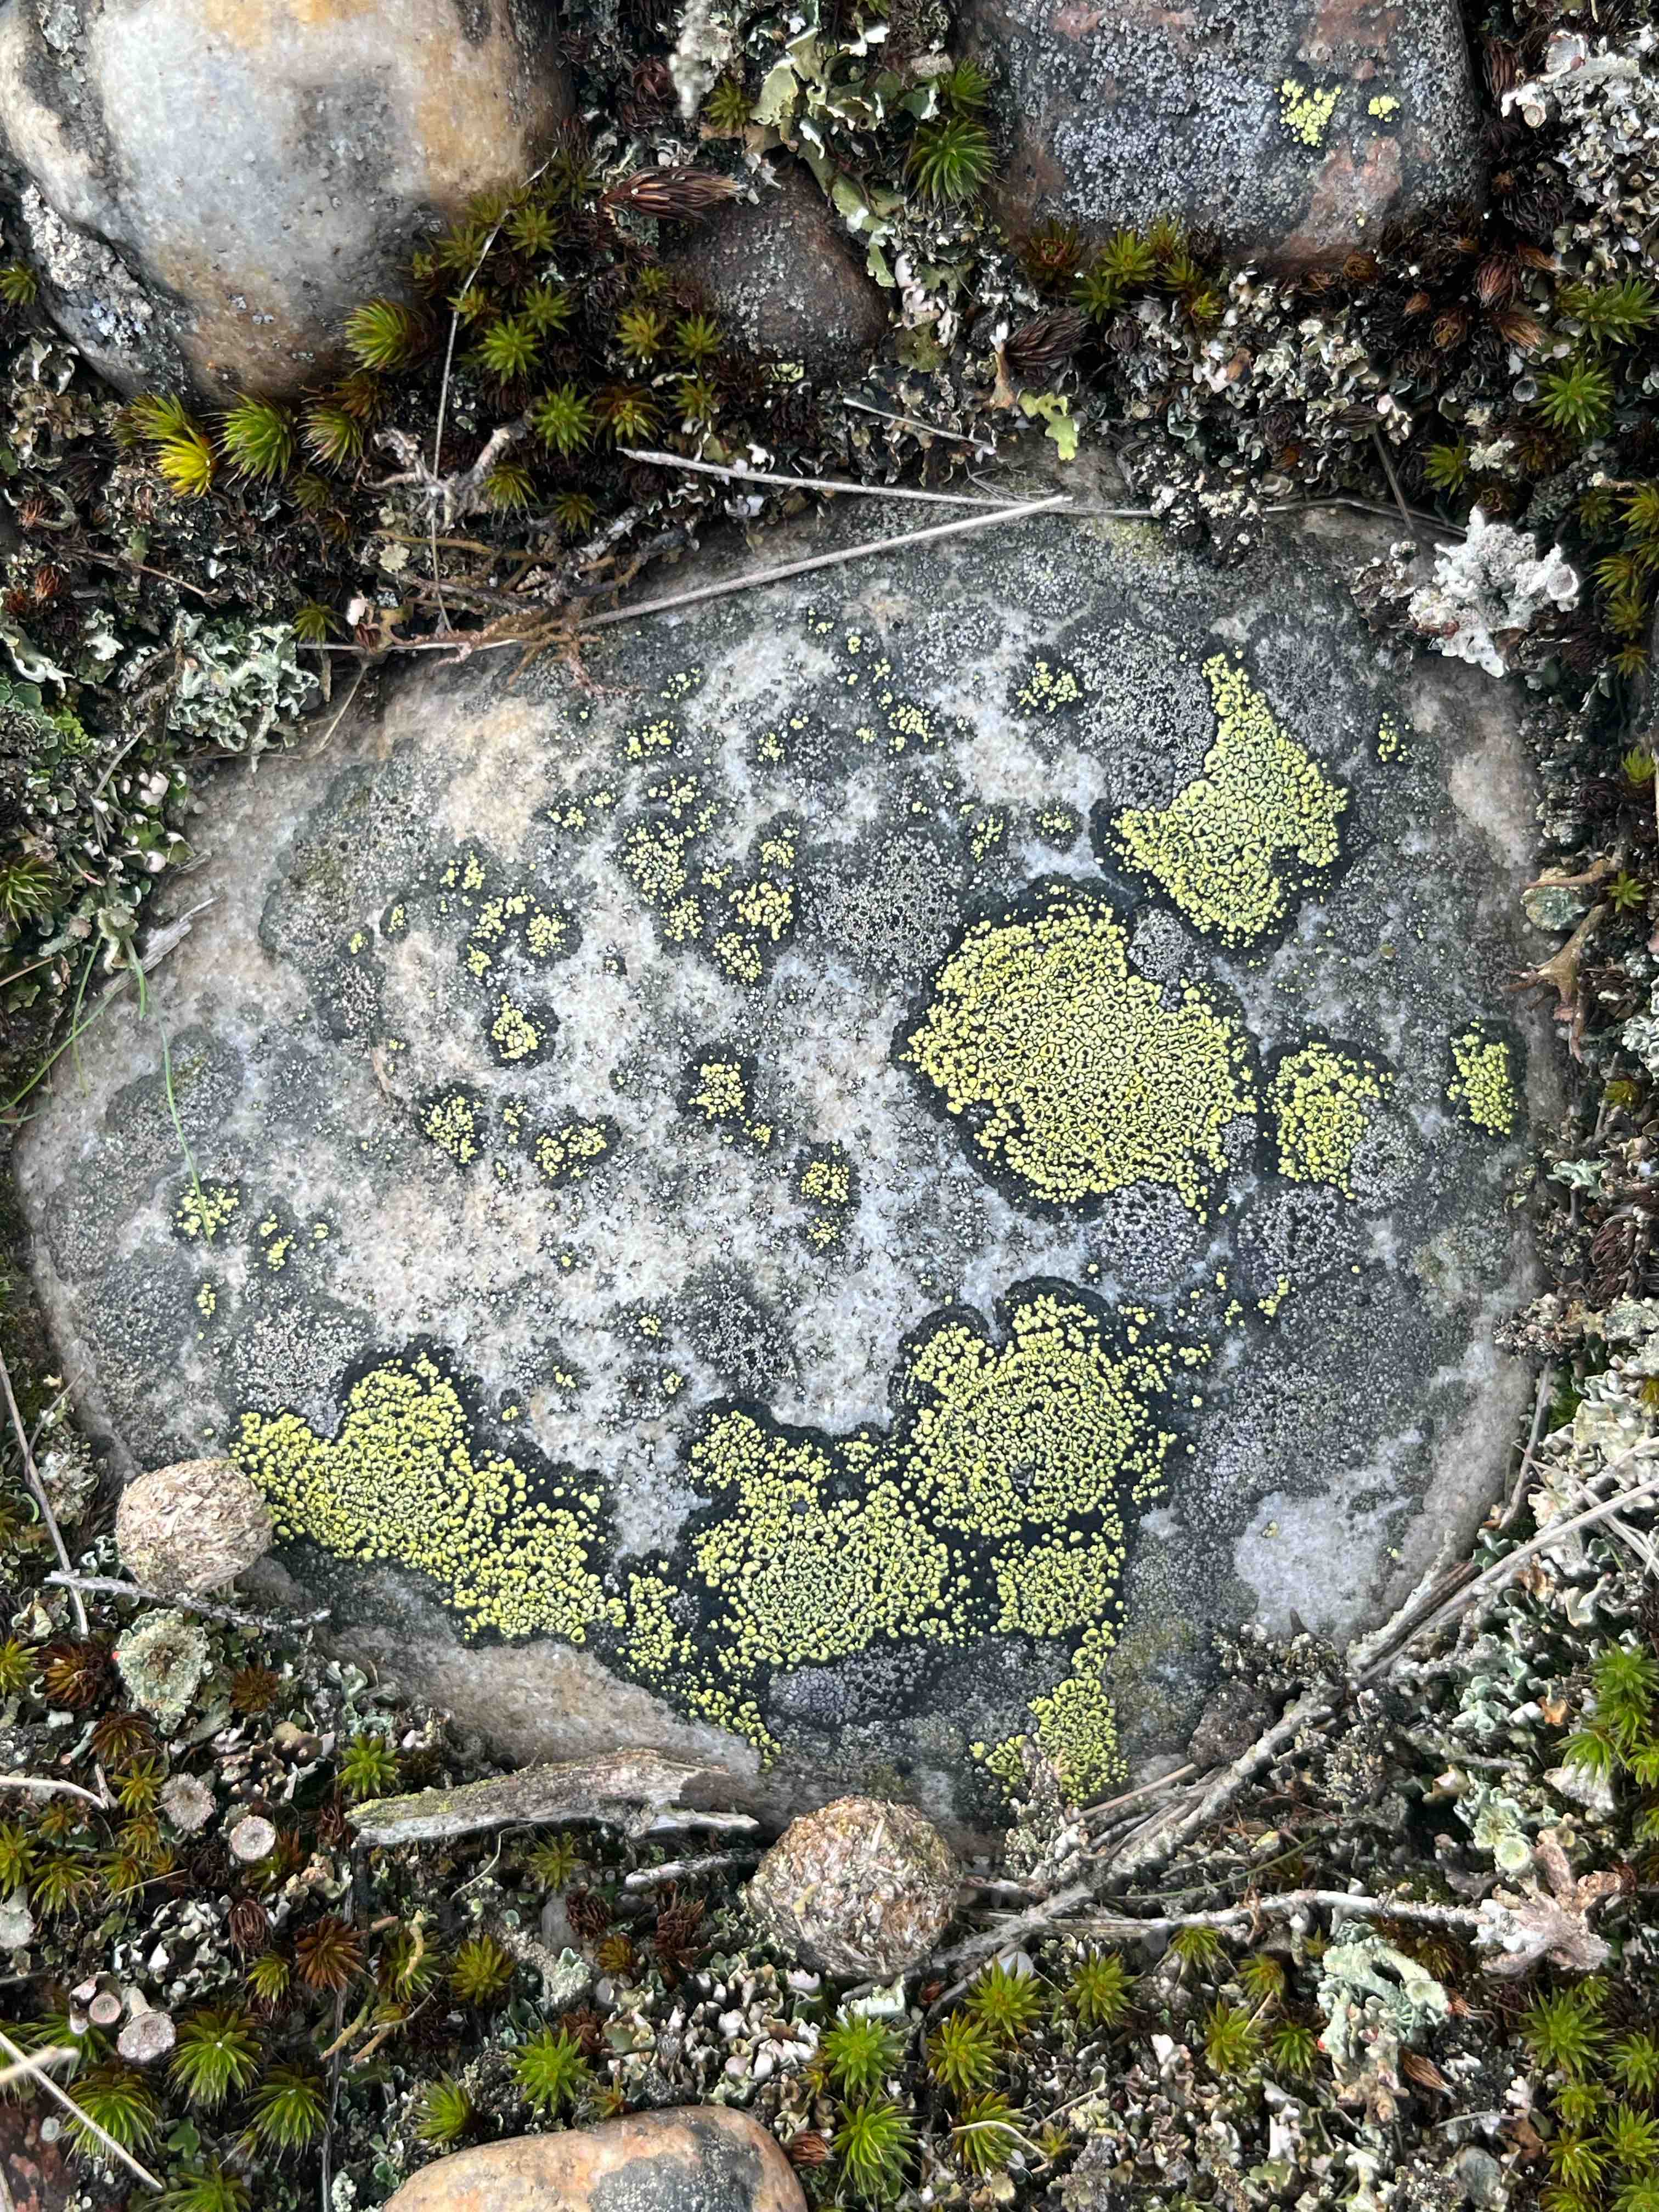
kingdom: Fungi
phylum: Ascomycota
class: Lecanoromycetes
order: Rhizocarpales
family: Rhizocarpaceae
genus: Rhizocarpon
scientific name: Rhizocarpon lecanorinum
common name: krave-landkortlav
